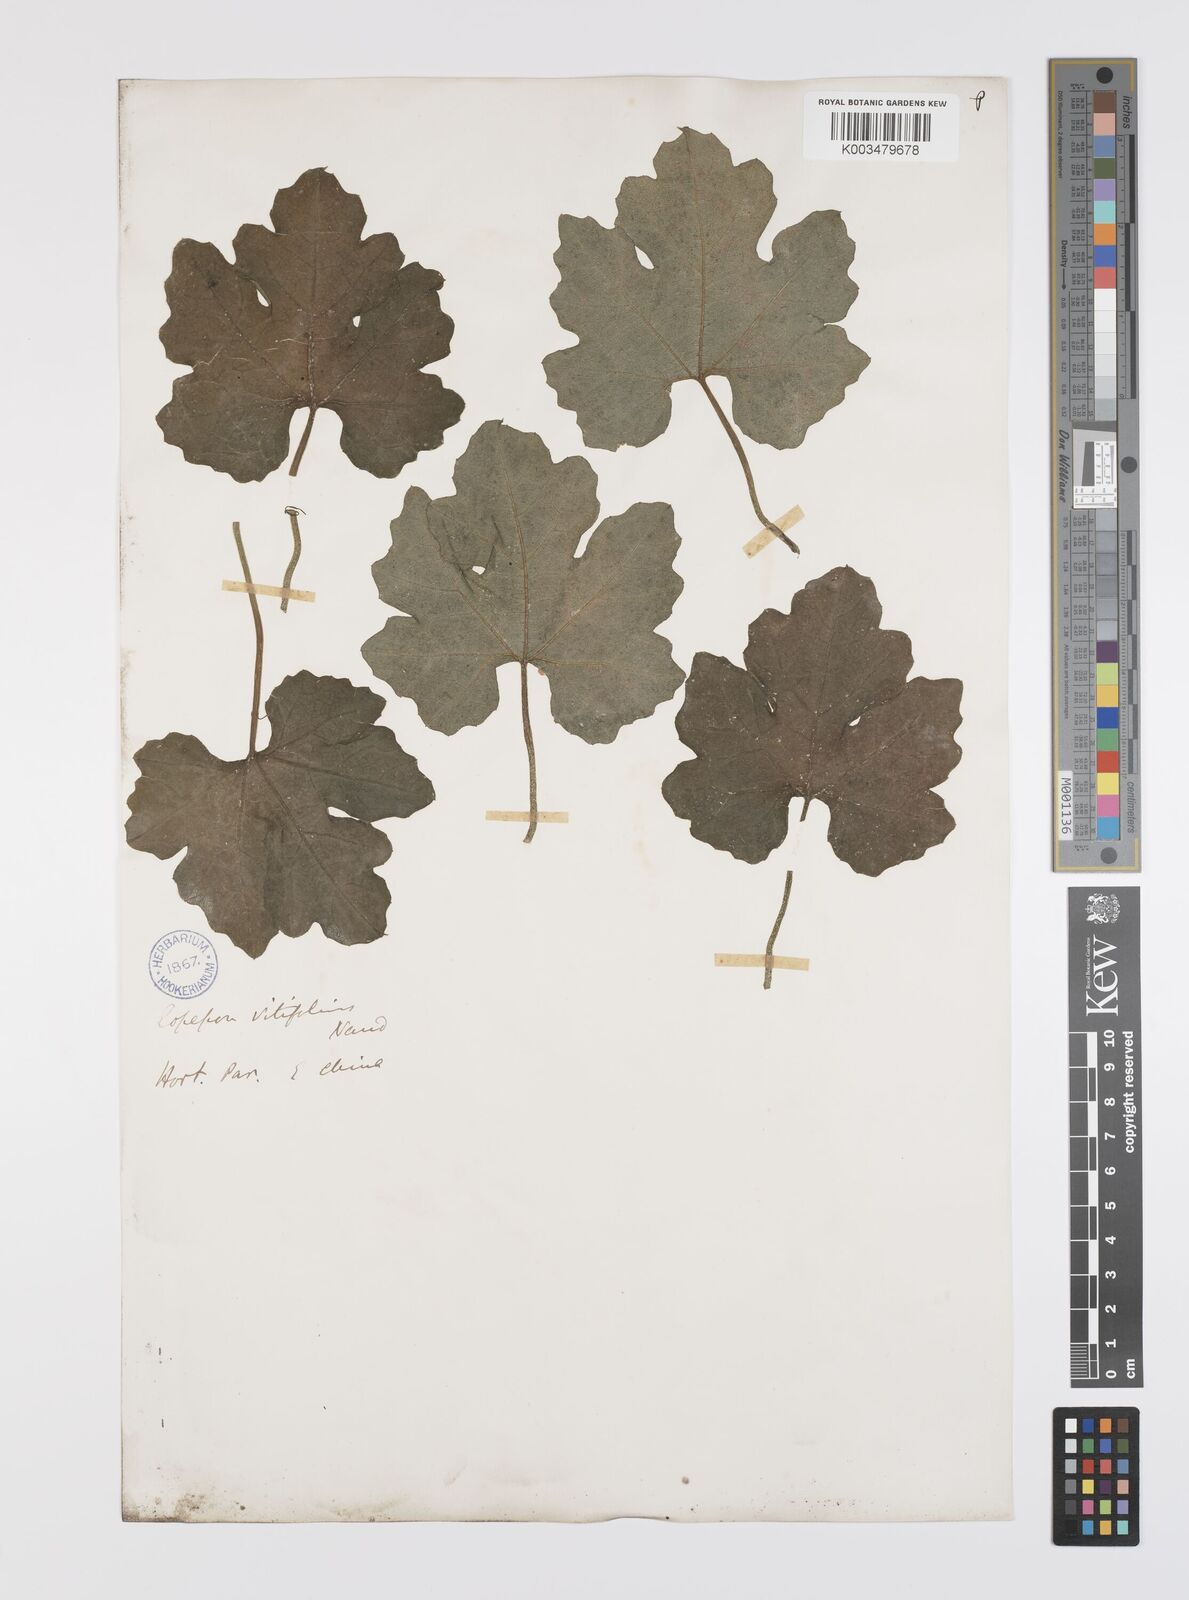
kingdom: Plantae
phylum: Tracheophyta
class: Magnoliopsida
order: Cucurbitales
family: Cucurbitaceae
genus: Trichosanthes
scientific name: Trichosanthes kirilowii
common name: Chinese-cucumber
